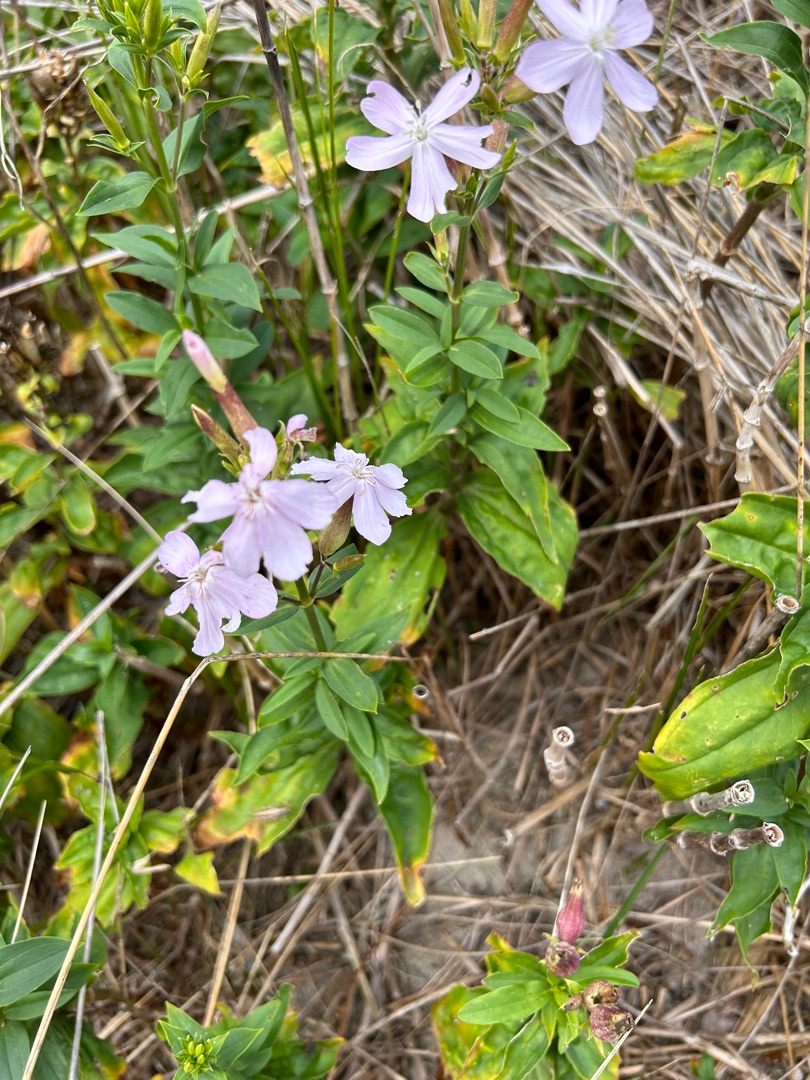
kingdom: Plantae
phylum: Tracheophyta
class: Magnoliopsida
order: Caryophyllales
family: Caryophyllaceae
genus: Saponaria
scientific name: Saponaria officinalis
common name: Sæbeurt
